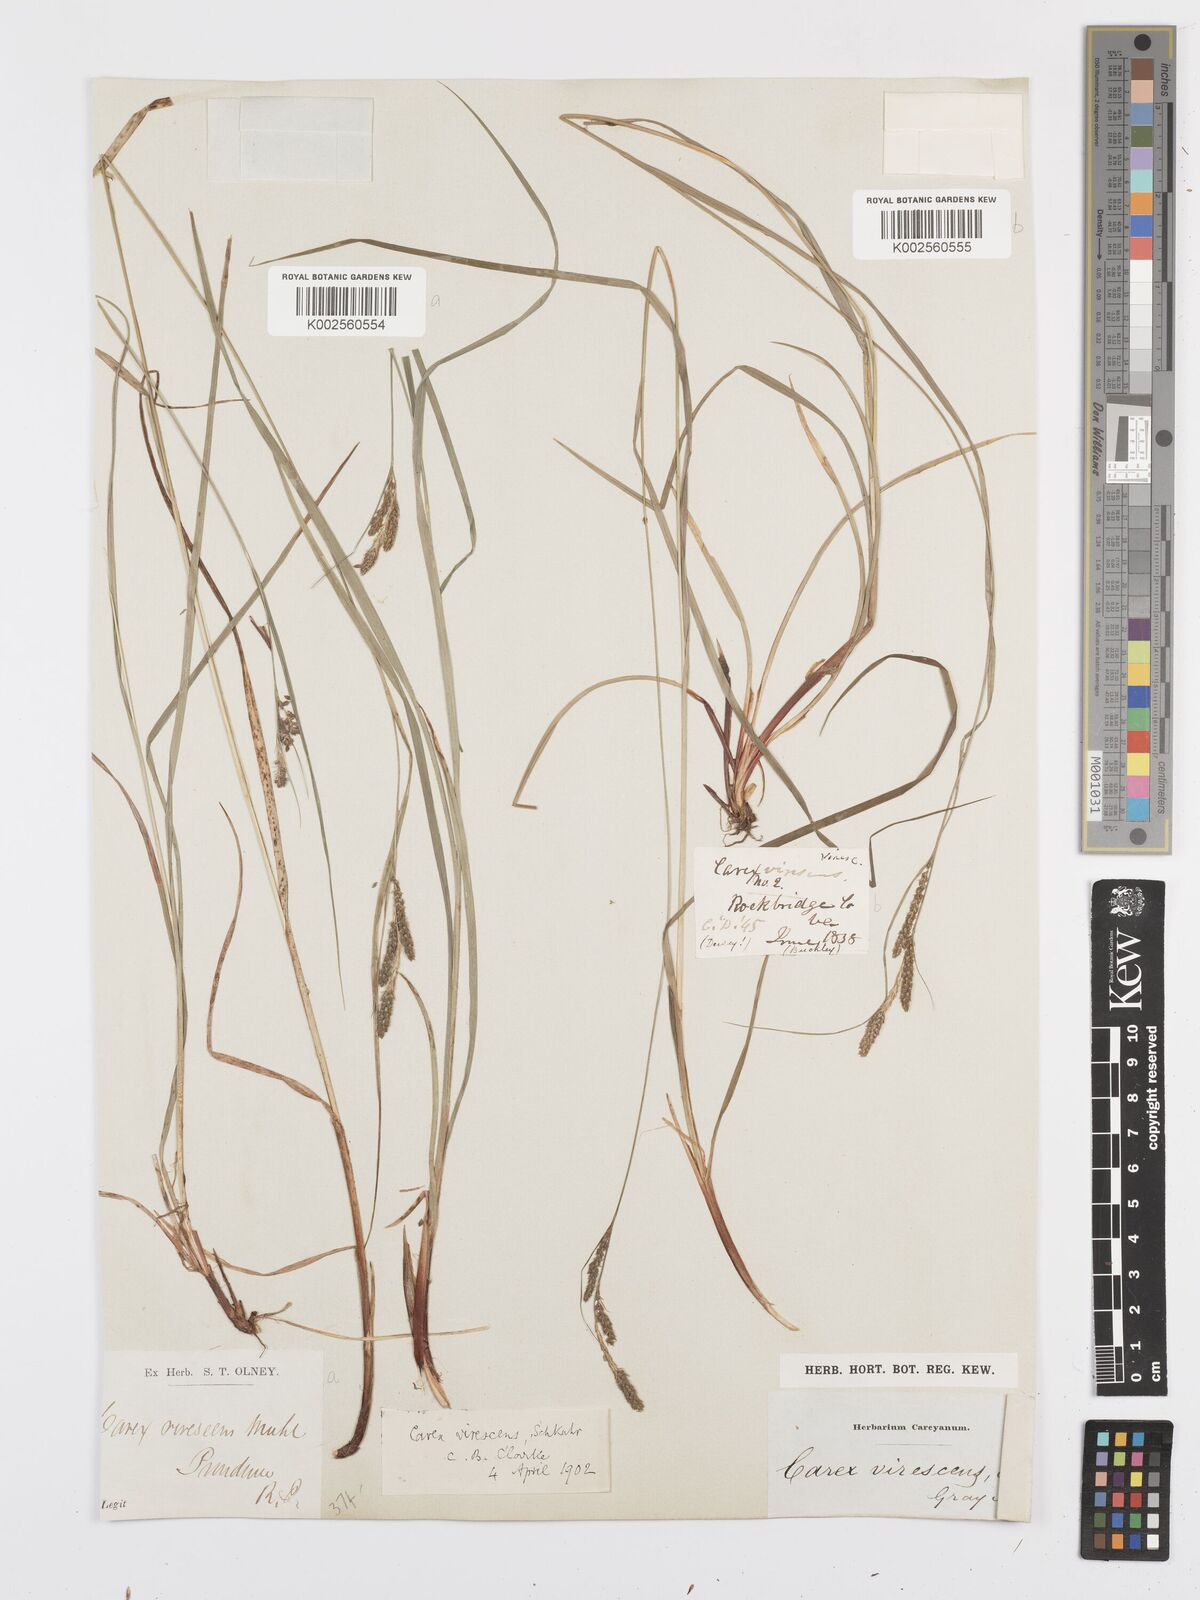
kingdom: Plantae
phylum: Tracheophyta
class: Liliopsida
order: Poales
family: Cyperaceae
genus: Carex
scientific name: Carex virescens
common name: Ribbed sedge
